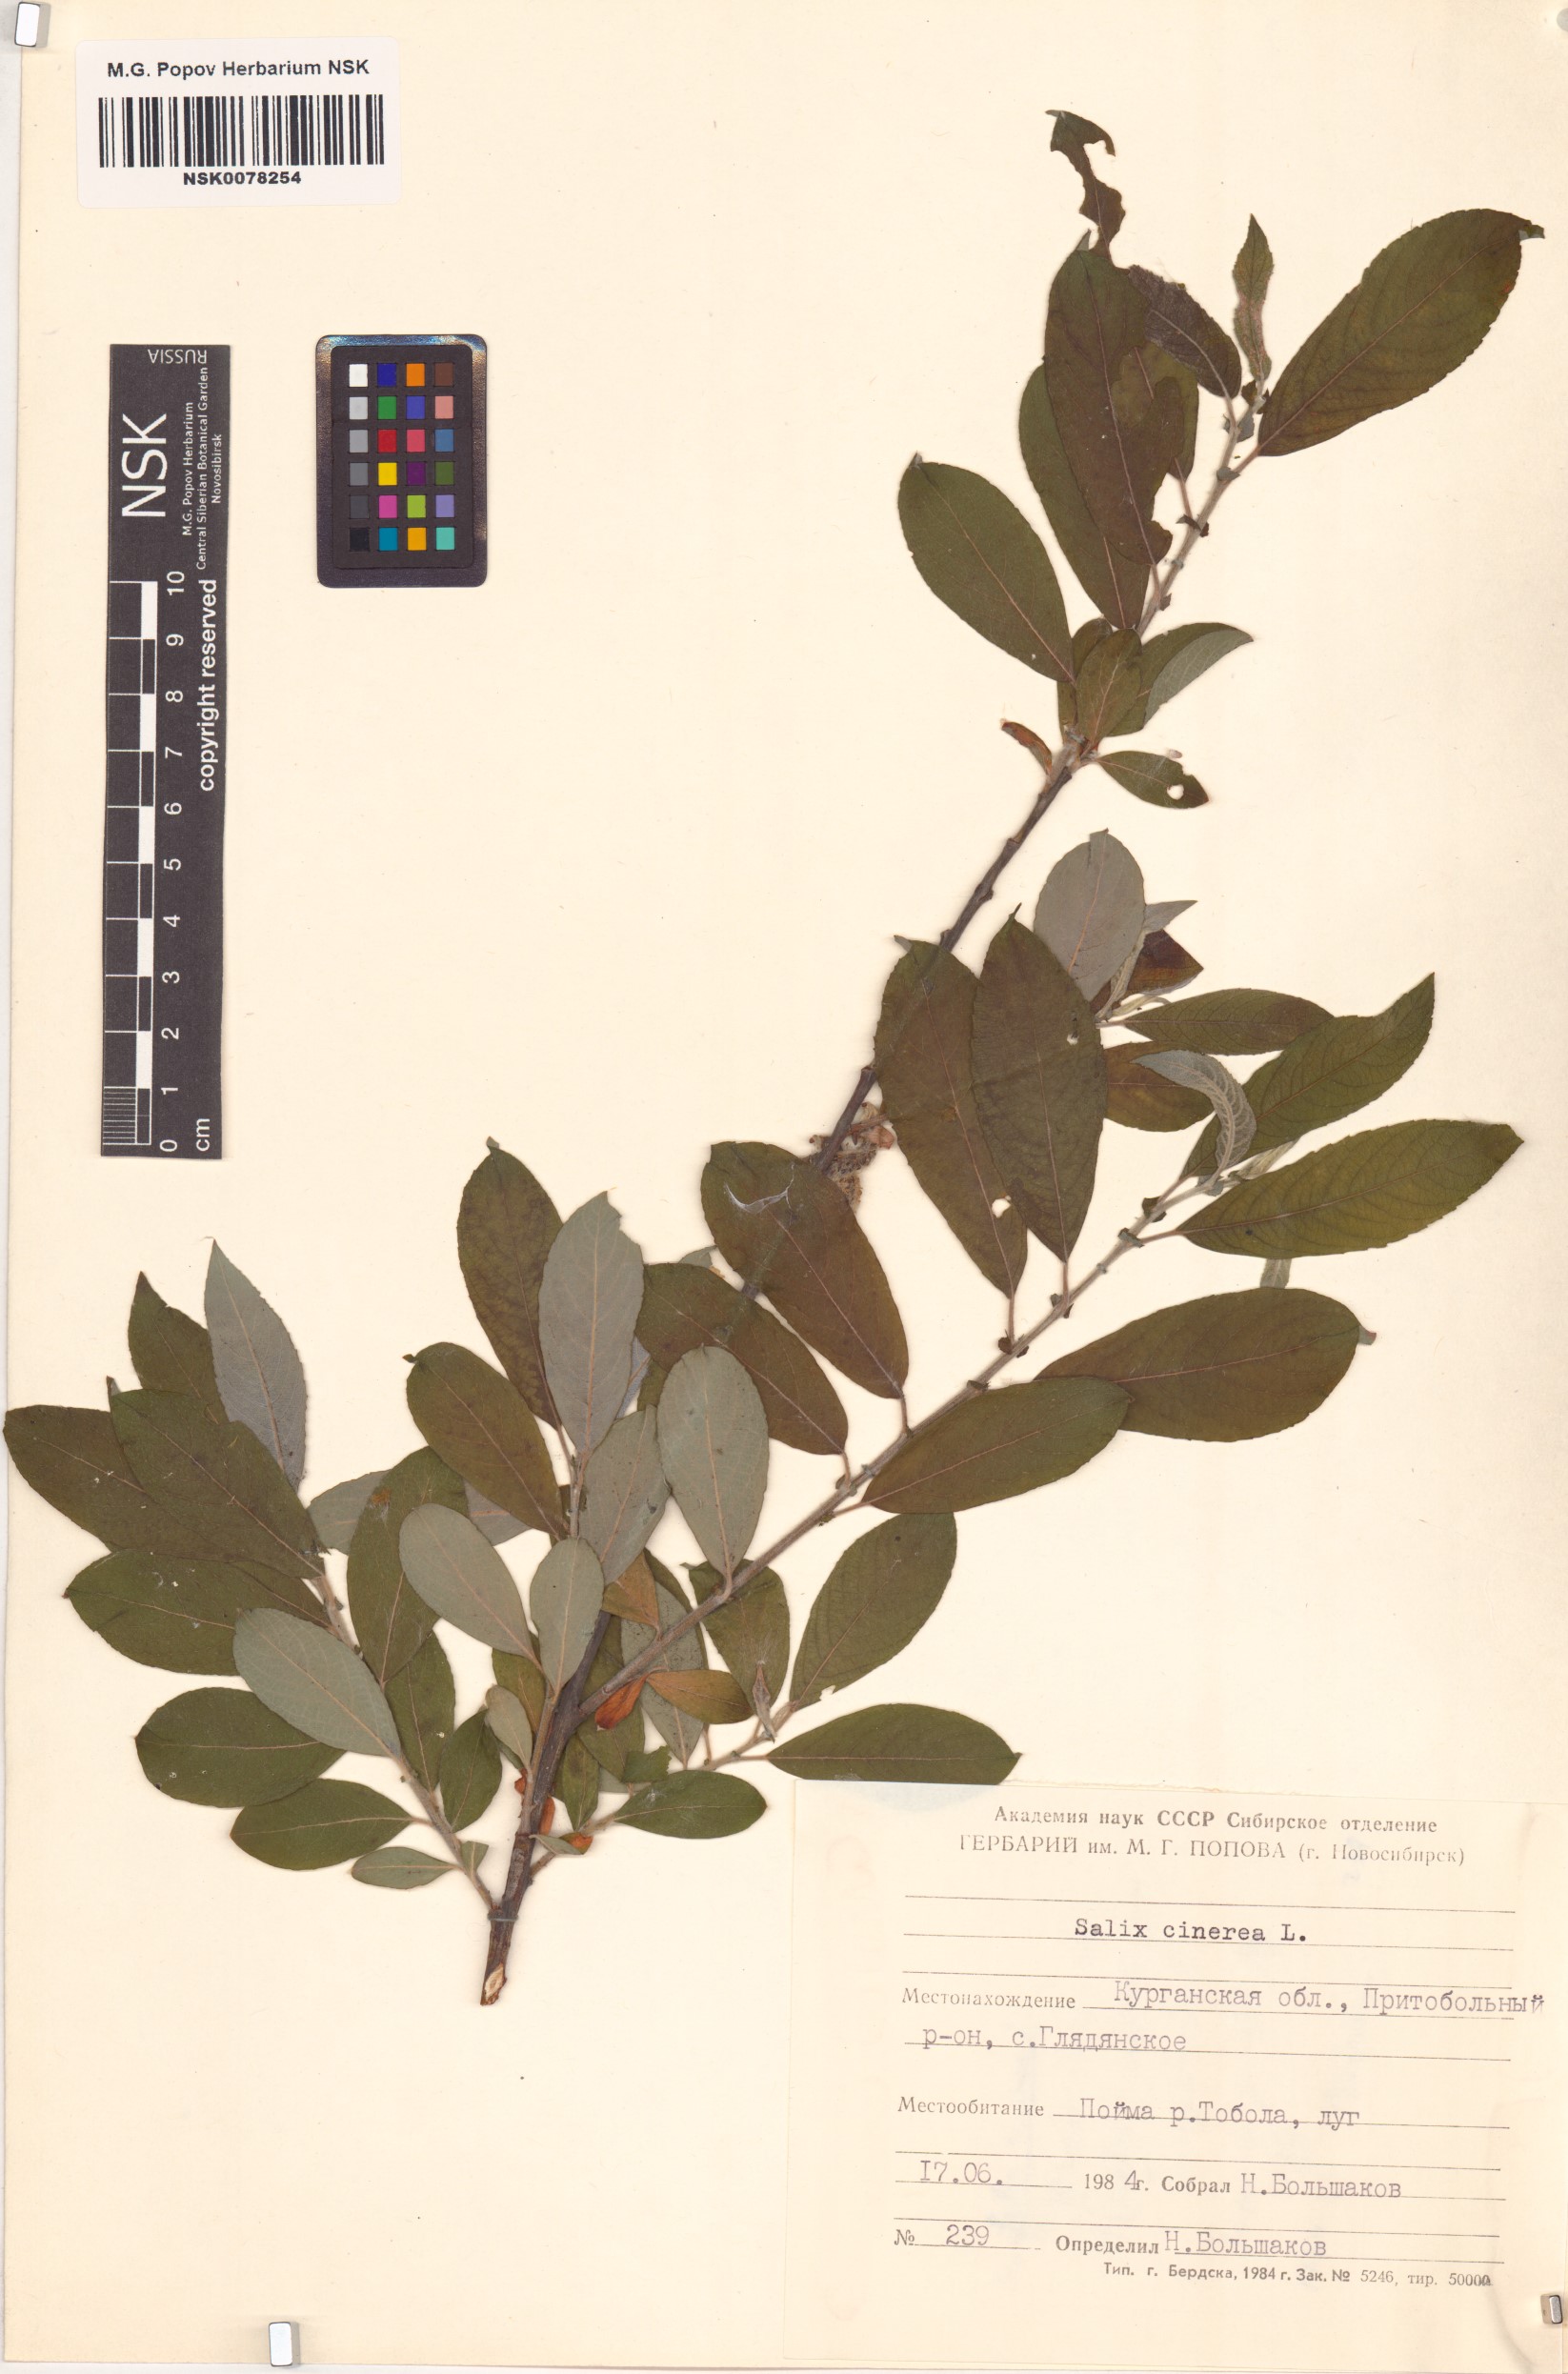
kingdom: Plantae
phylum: Tracheophyta
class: Magnoliopsida
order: Malpighiales
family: Salicaceae
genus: Salix
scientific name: Salix cinerea
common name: Common sallow
